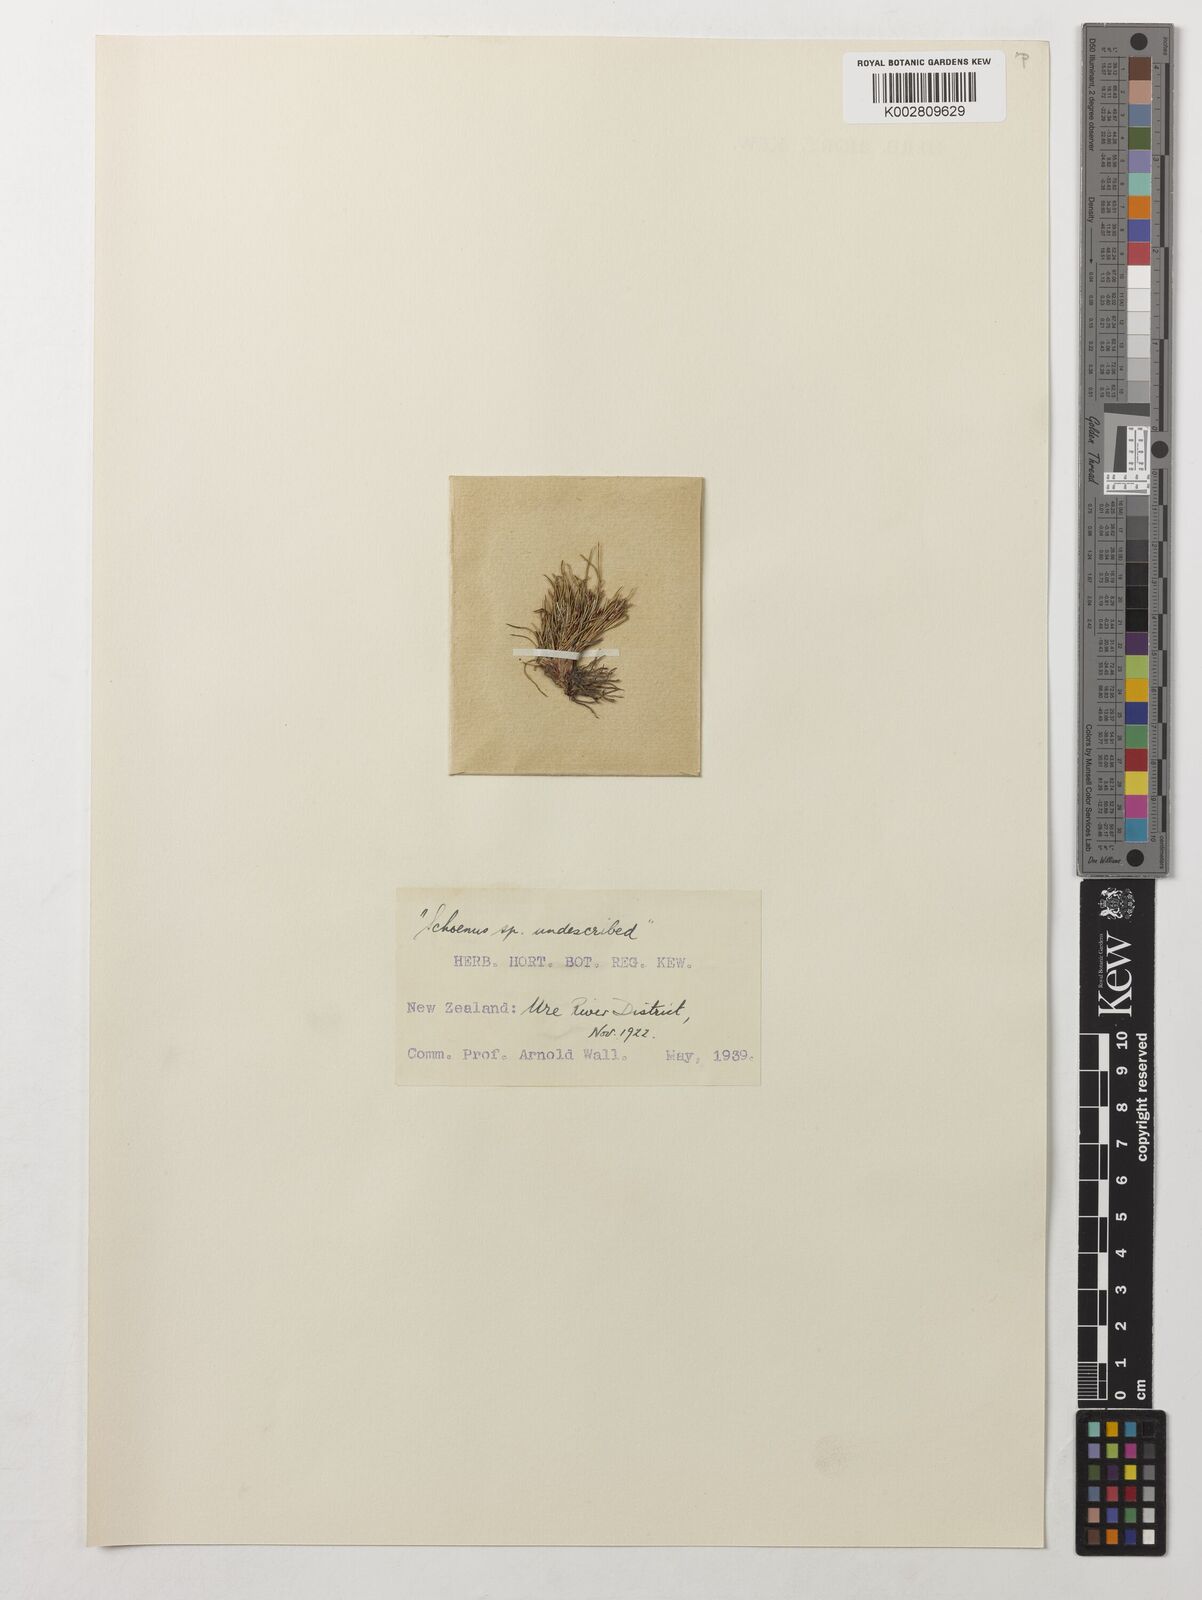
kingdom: Plantae
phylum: Tracheophyta
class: Liliopsida
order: Poales
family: Cyperaceae
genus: Schoenus
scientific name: Schoenus
